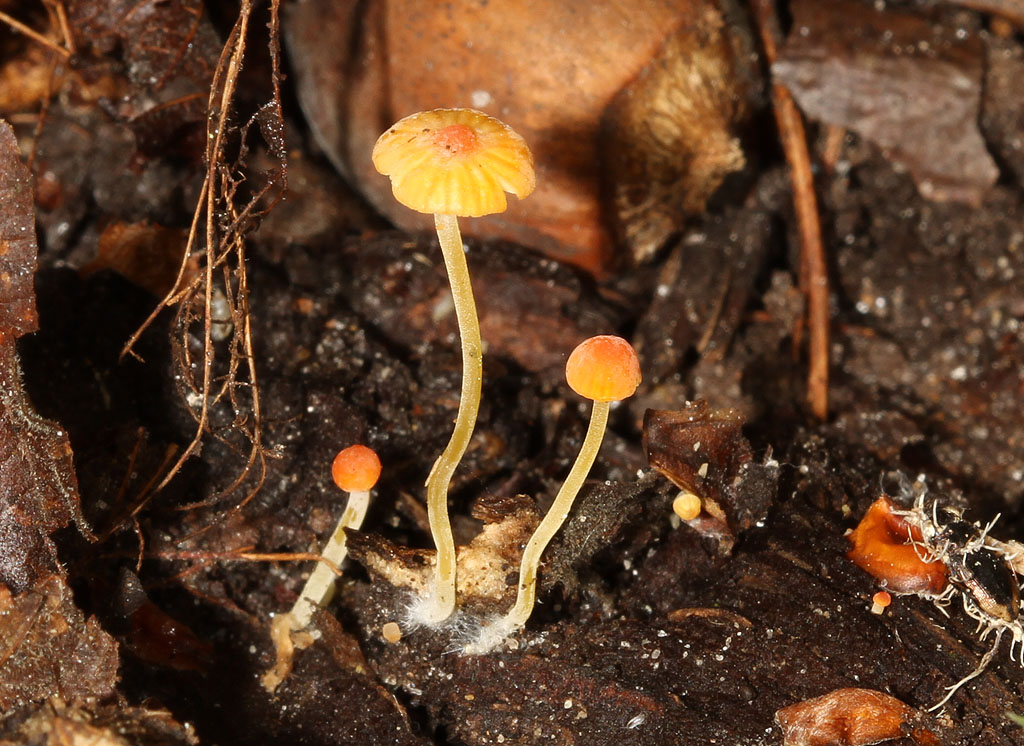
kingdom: Fungi
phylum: Basidiomycota
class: Agaricomycetes
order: Agaricales
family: Mycenaceae
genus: Mycena
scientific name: Mycena acicula
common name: orange huesvamp
